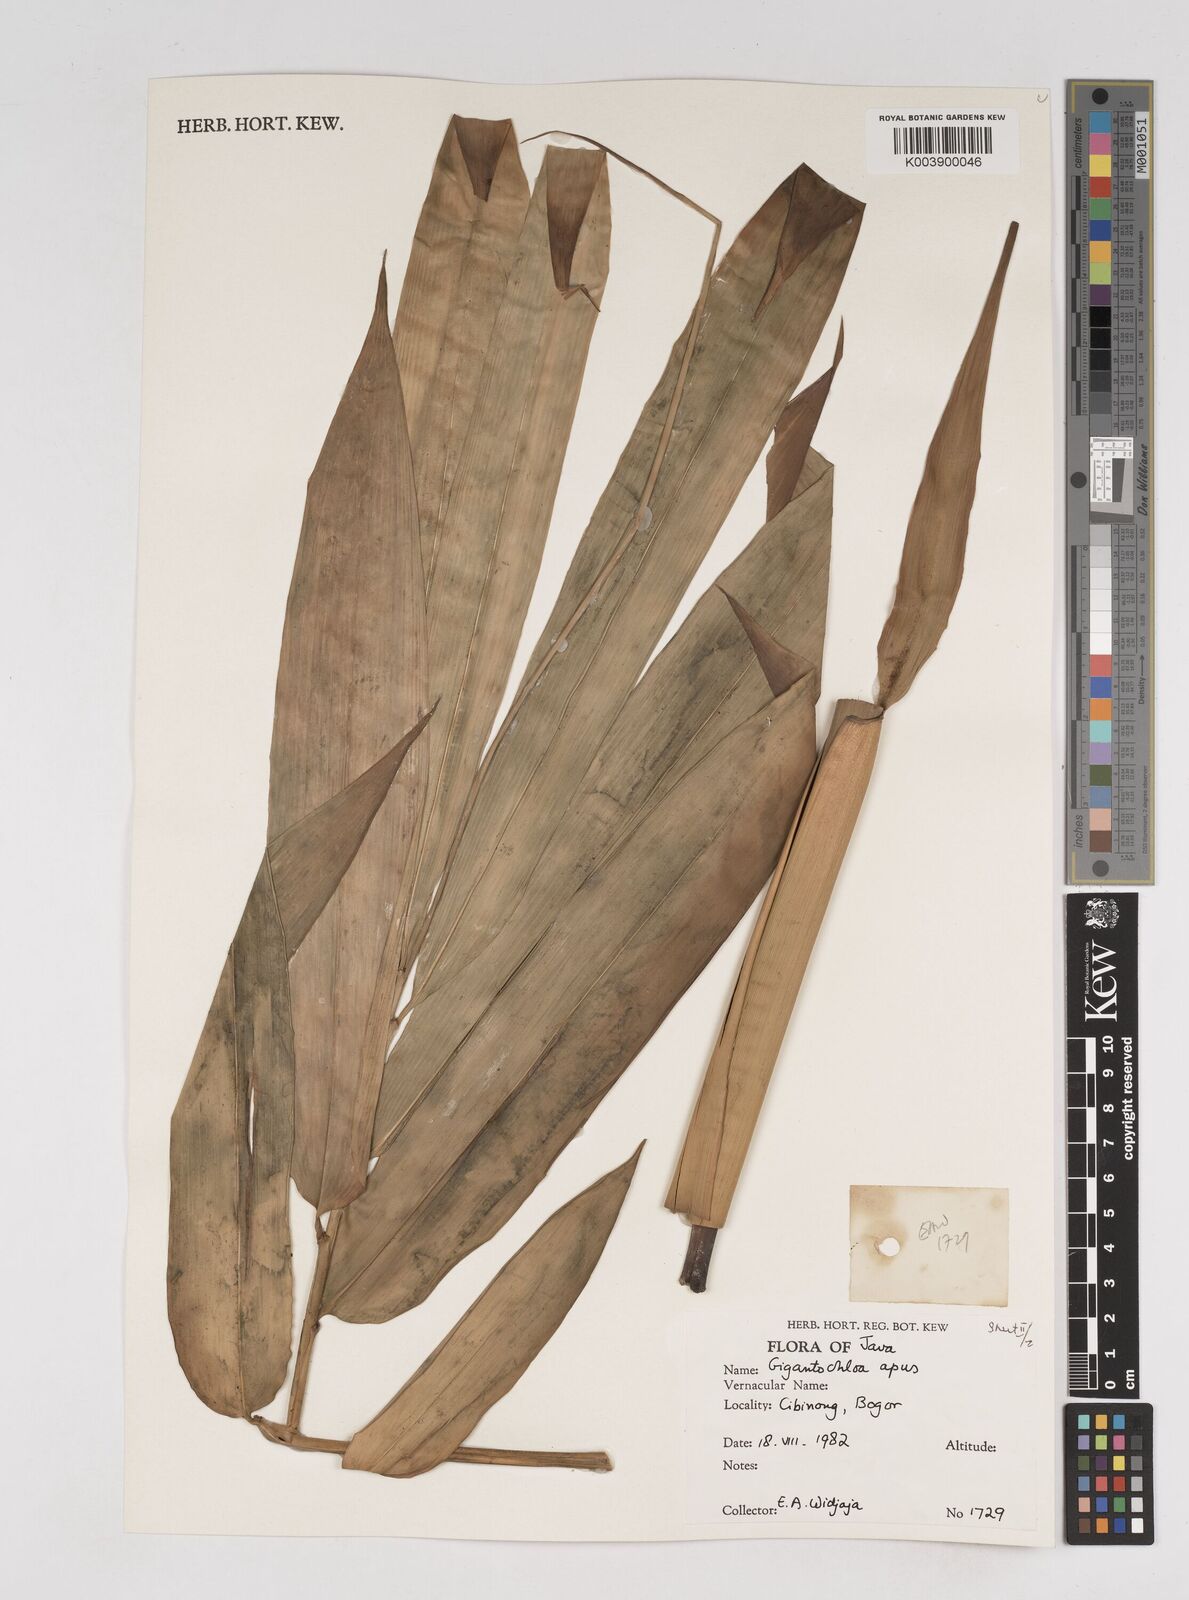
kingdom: Plantae
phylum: Tracheophyta
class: Liliopsida
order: Poales
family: Poaceae
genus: Gigantochloa
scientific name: Gigantochloa apus
